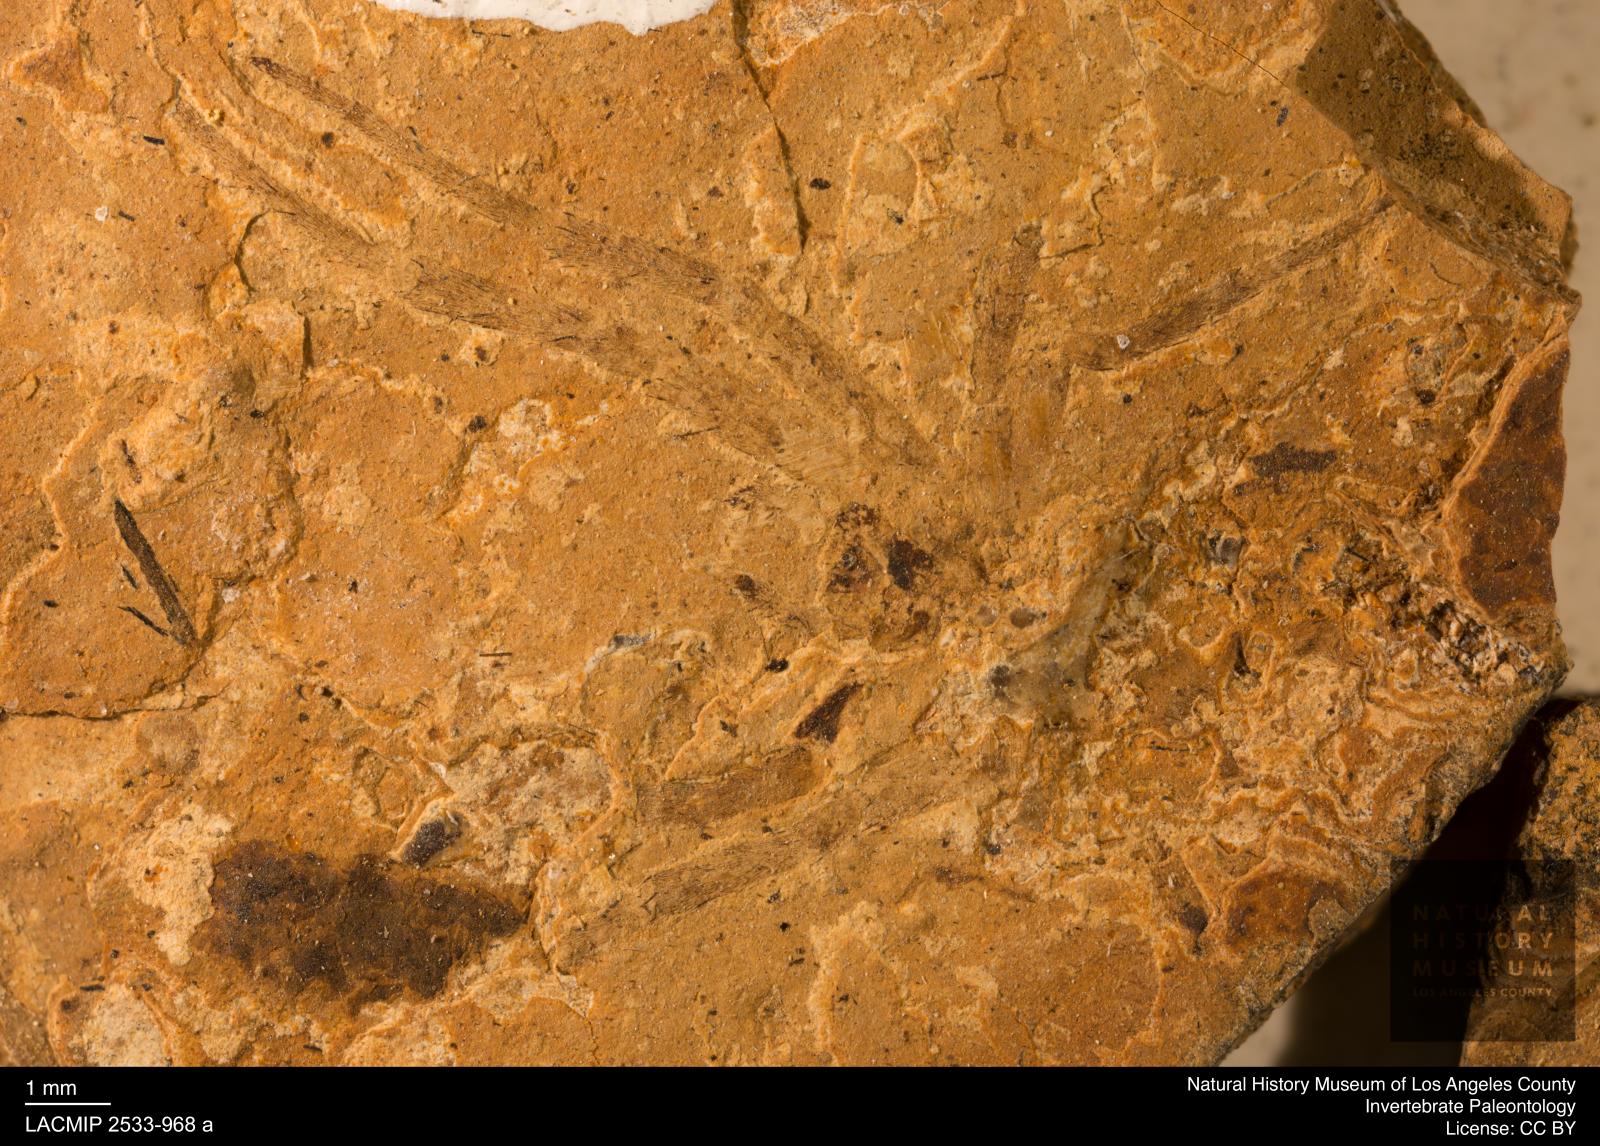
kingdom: Animalia
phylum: Arthropoda
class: Arachnida
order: Araneae
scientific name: Araneae
